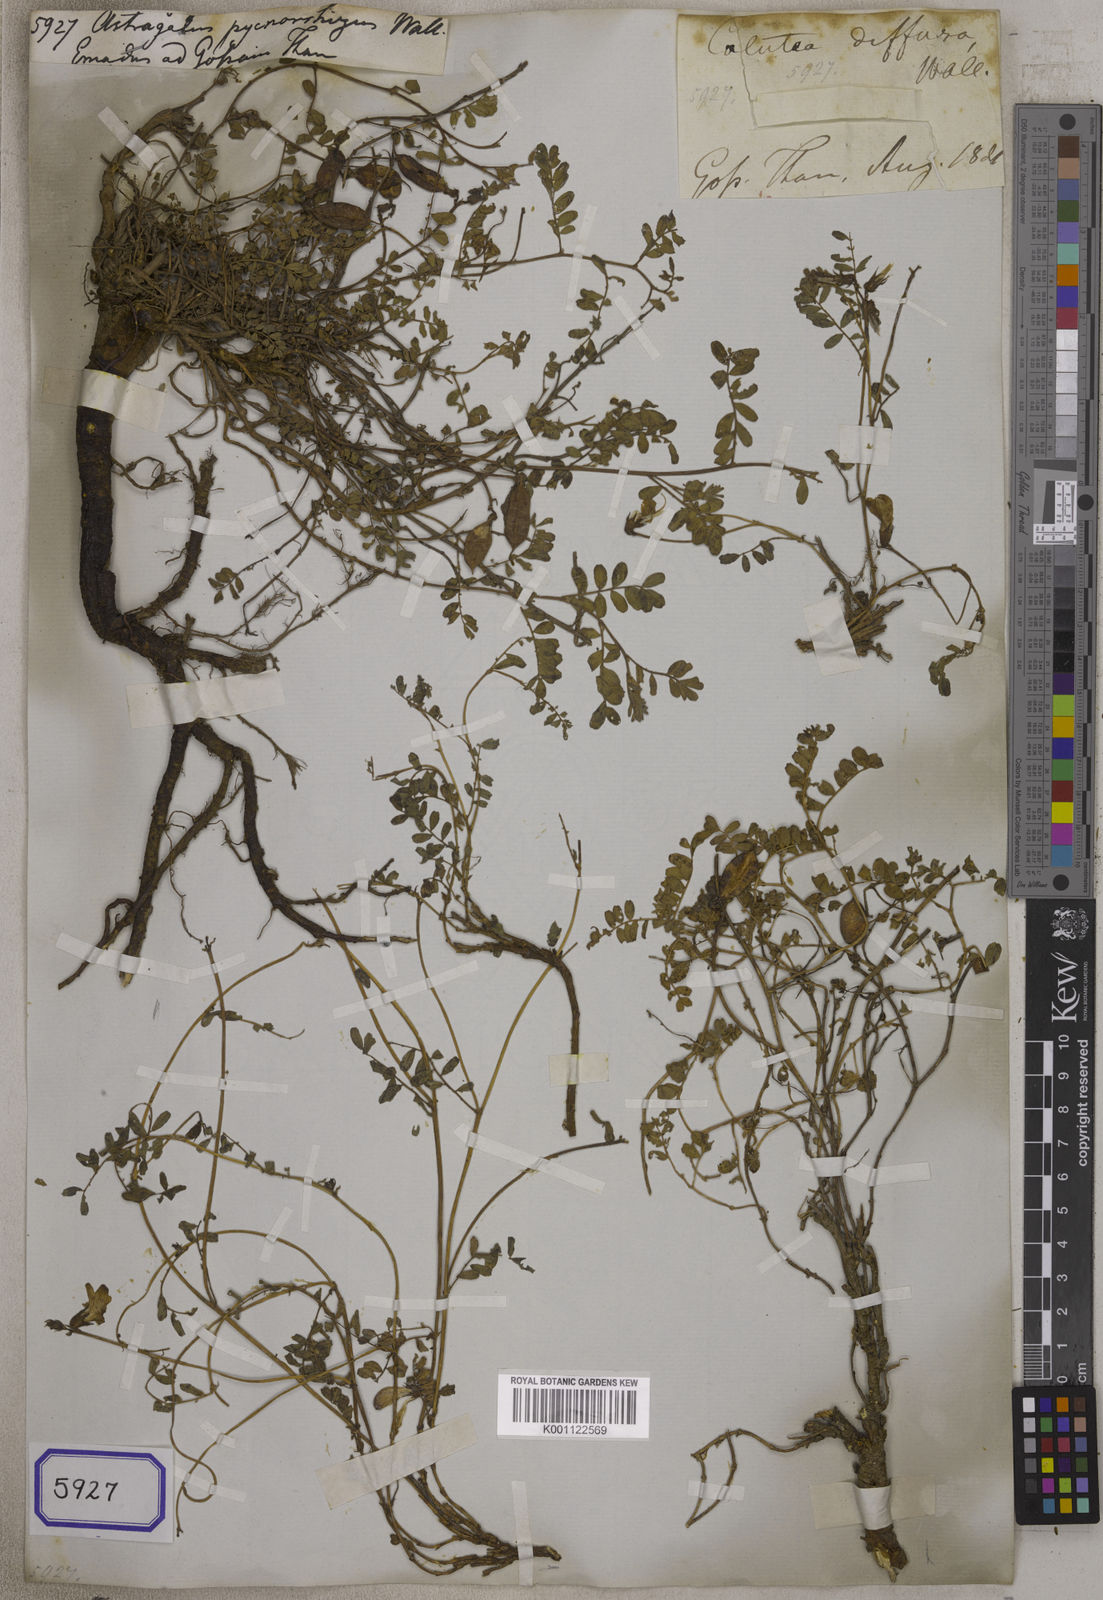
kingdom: Plantae
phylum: Tracheophyta
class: Magnoliopsida
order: Fabales
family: Fabaceae
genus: Astragalus
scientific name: Astragalus
